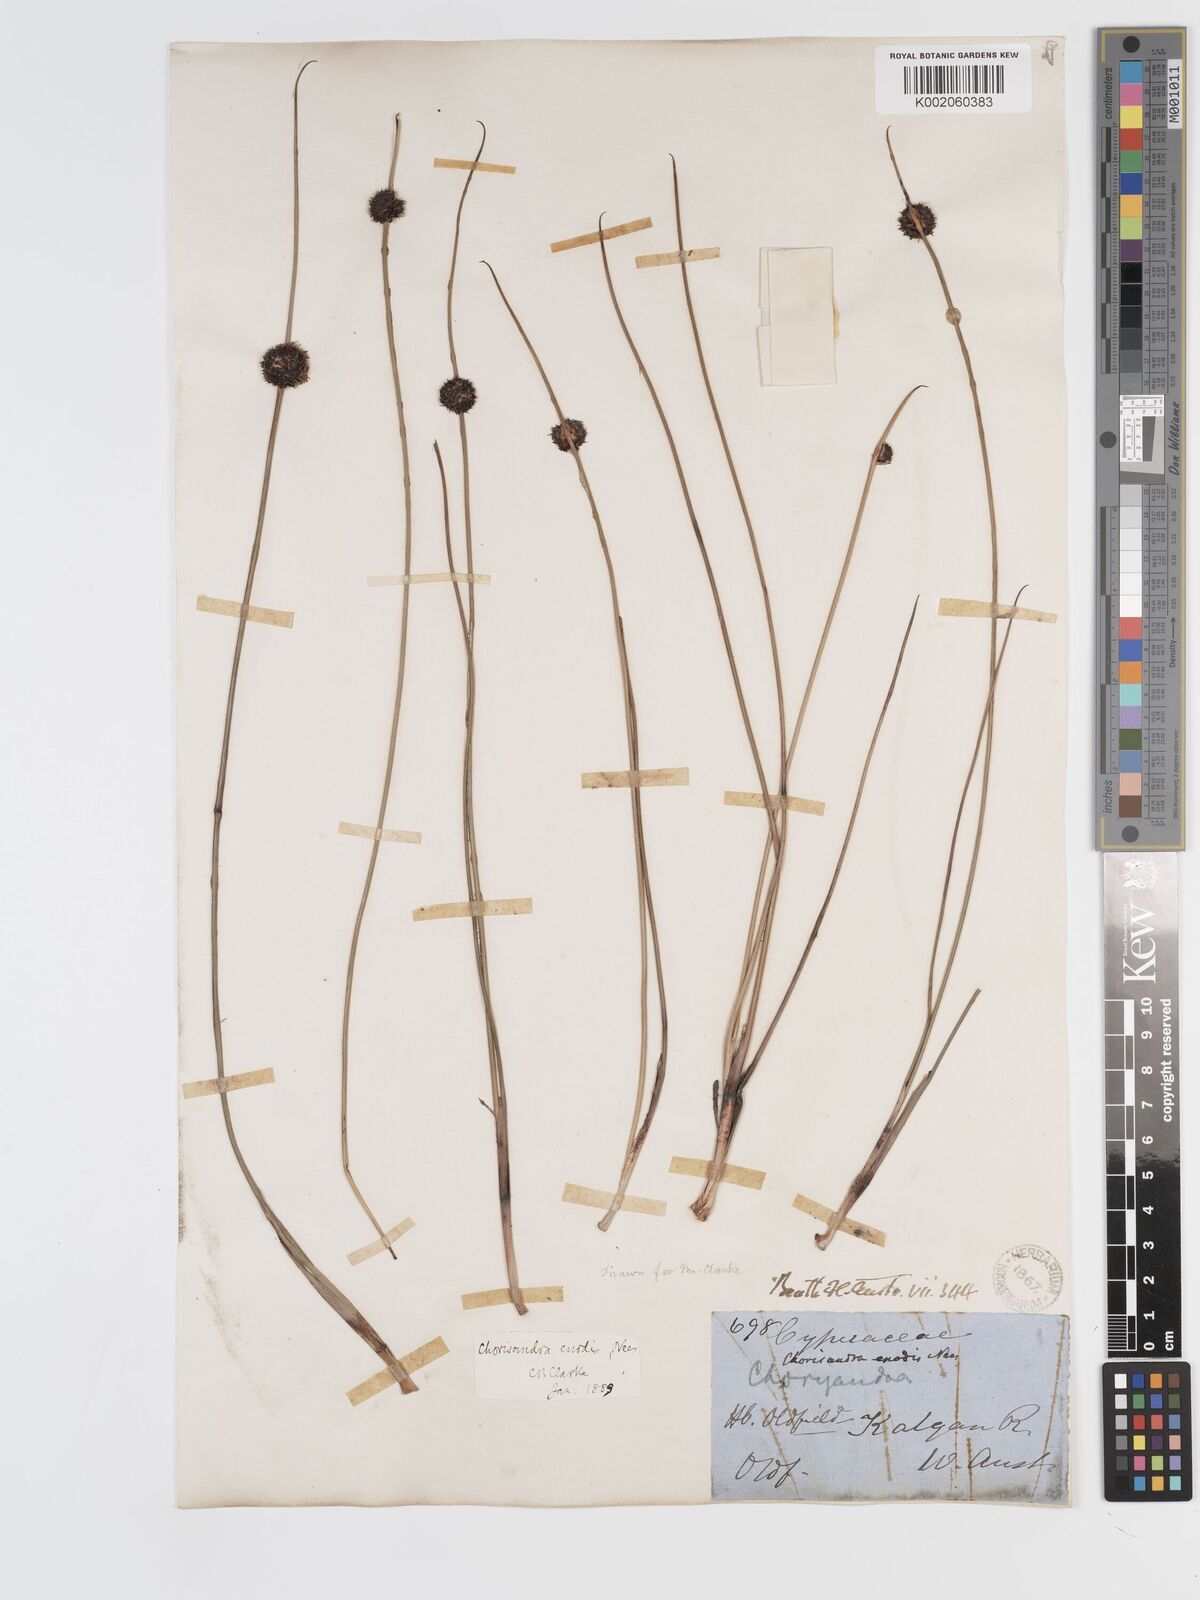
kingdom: Plantae
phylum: Tracheophyta
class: Liliopsida
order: Poales
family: Cyperaceae
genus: Chorizandra
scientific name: Chorizandra enodis
